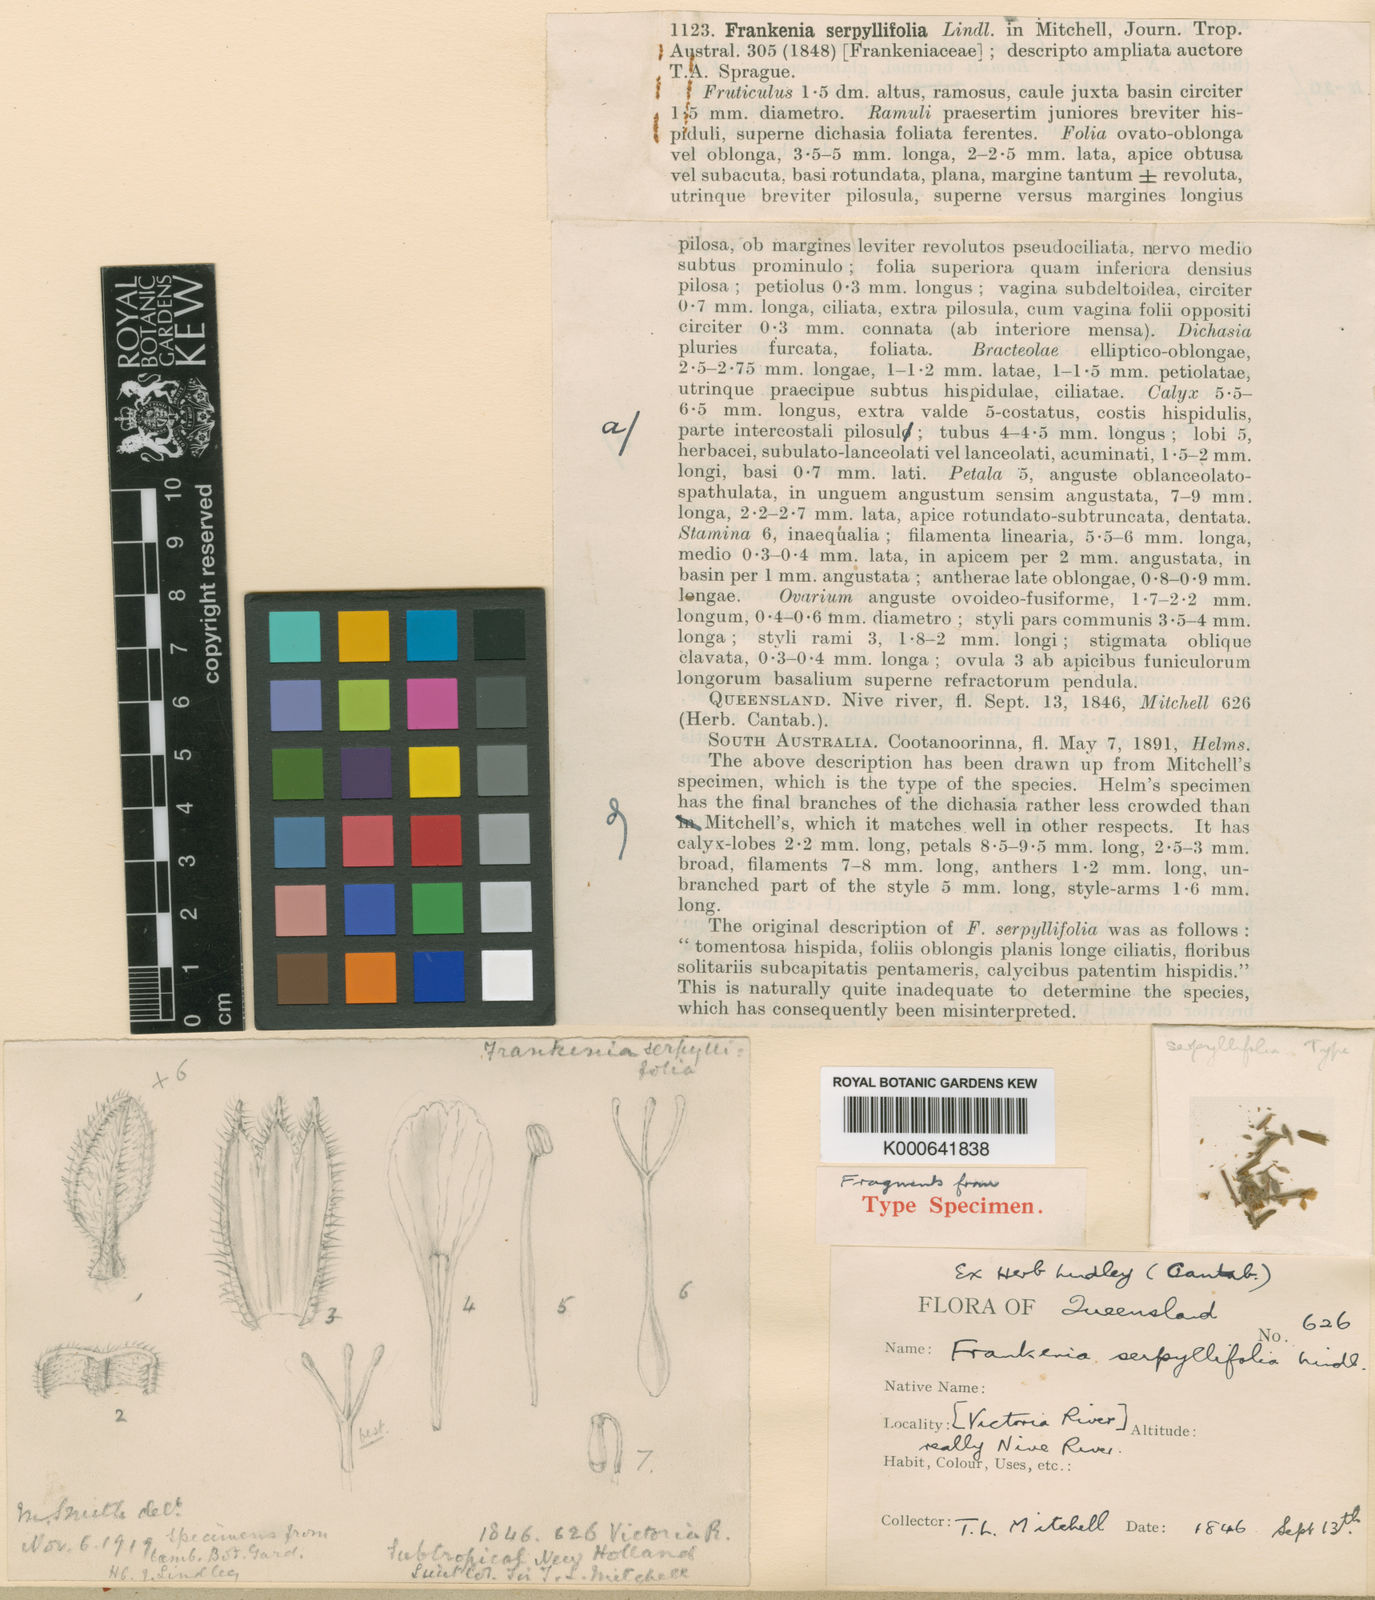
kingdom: Plantae
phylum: Tracheophyta
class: Magnoliopsida
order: Caryophyllales
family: Frankeniaceae
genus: Frankenia
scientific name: Frankenia serpyllifolia
